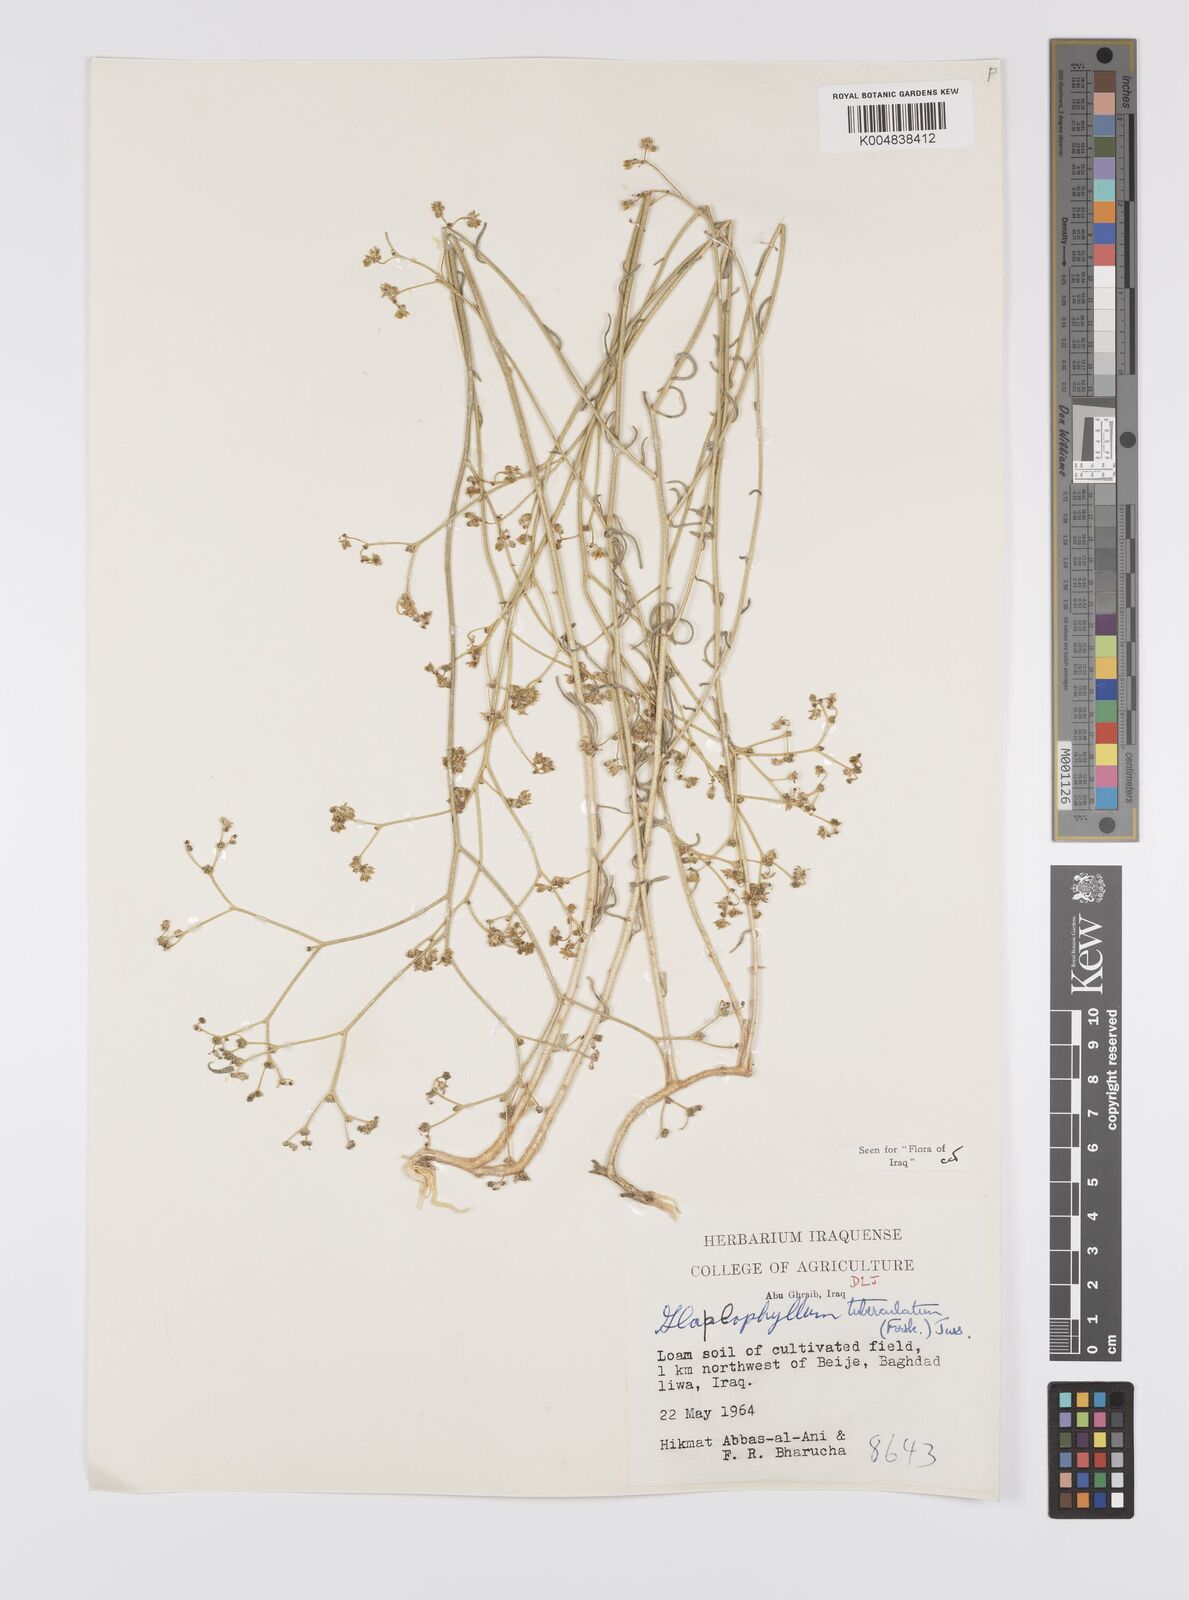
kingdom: Plantae
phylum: Tracheophyta
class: Magnoliopsida
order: Sapindales
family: Rutaceae
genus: Haplophyllum
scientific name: Haplophyllum tuberculatum
